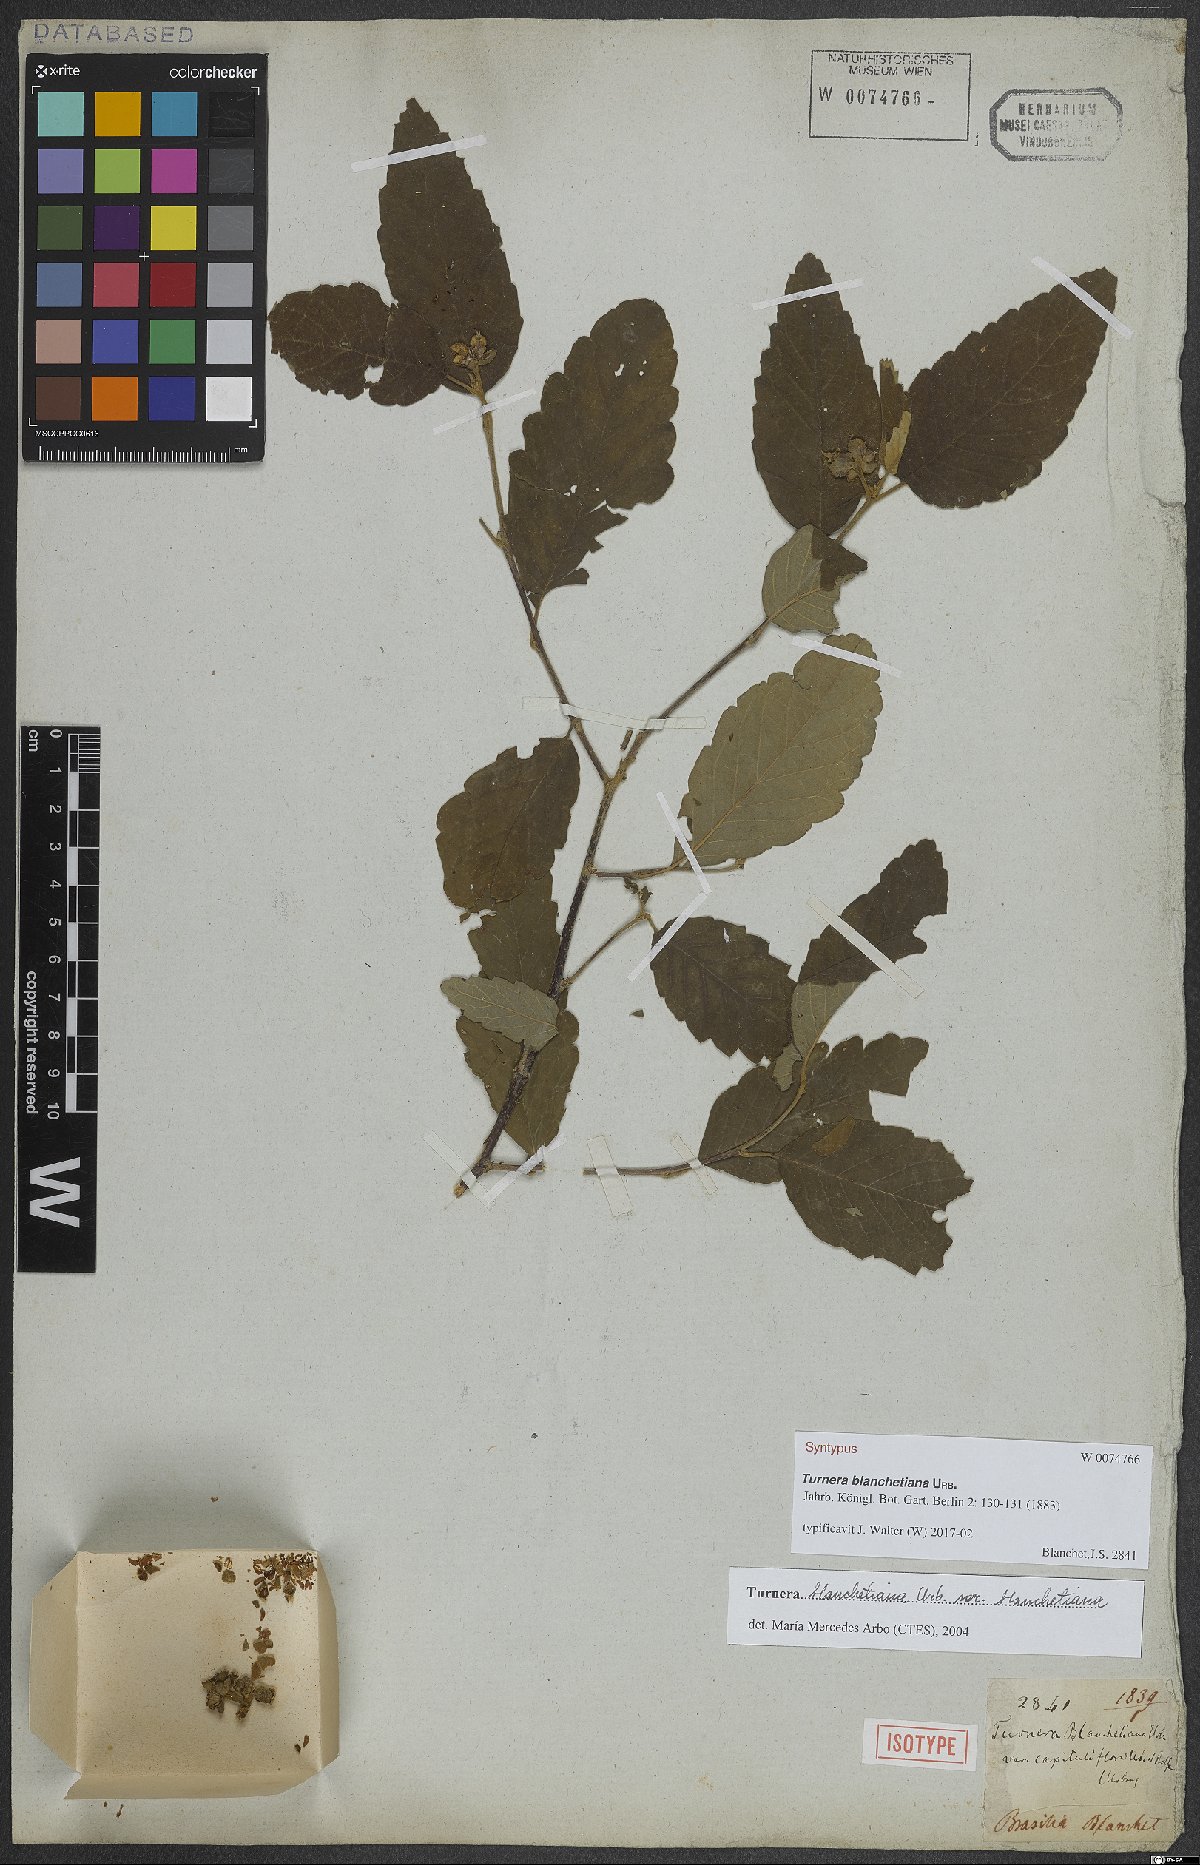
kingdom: Plantae
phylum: Tracheophyta
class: Magnoliopsida
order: Malpighiales
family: Turneraceae
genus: Turnera
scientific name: Turnera blanchetiana
